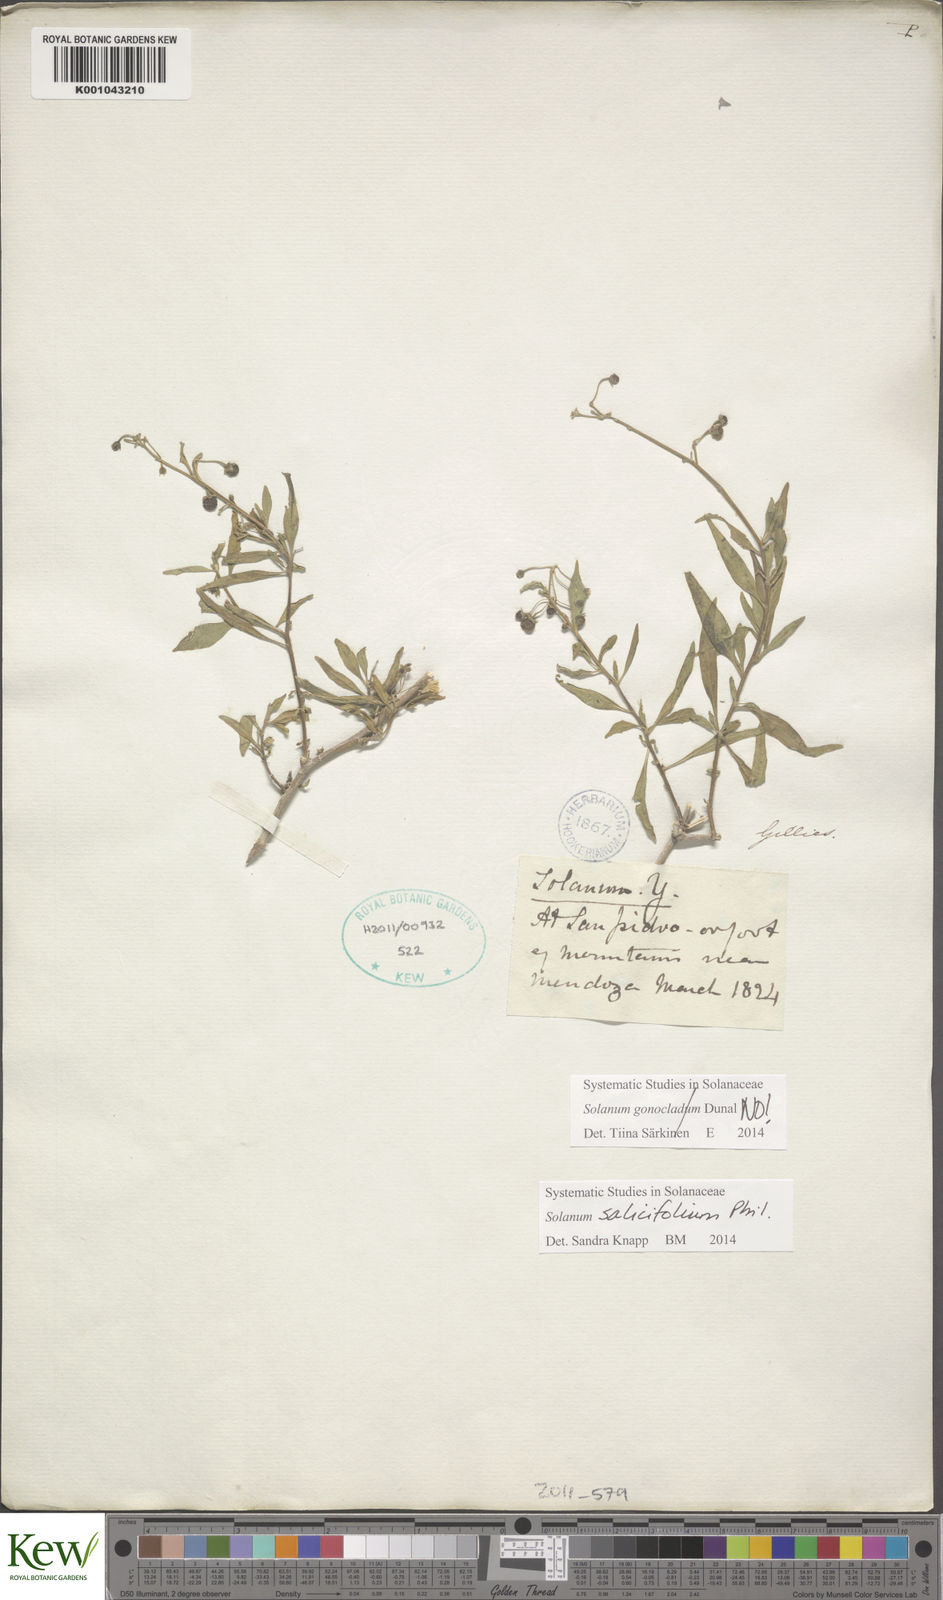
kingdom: Plantae
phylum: Tracheophyta
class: Magnoliopsida
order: Solanales
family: Solanaceae
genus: Solanum
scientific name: Solanum pallidum
